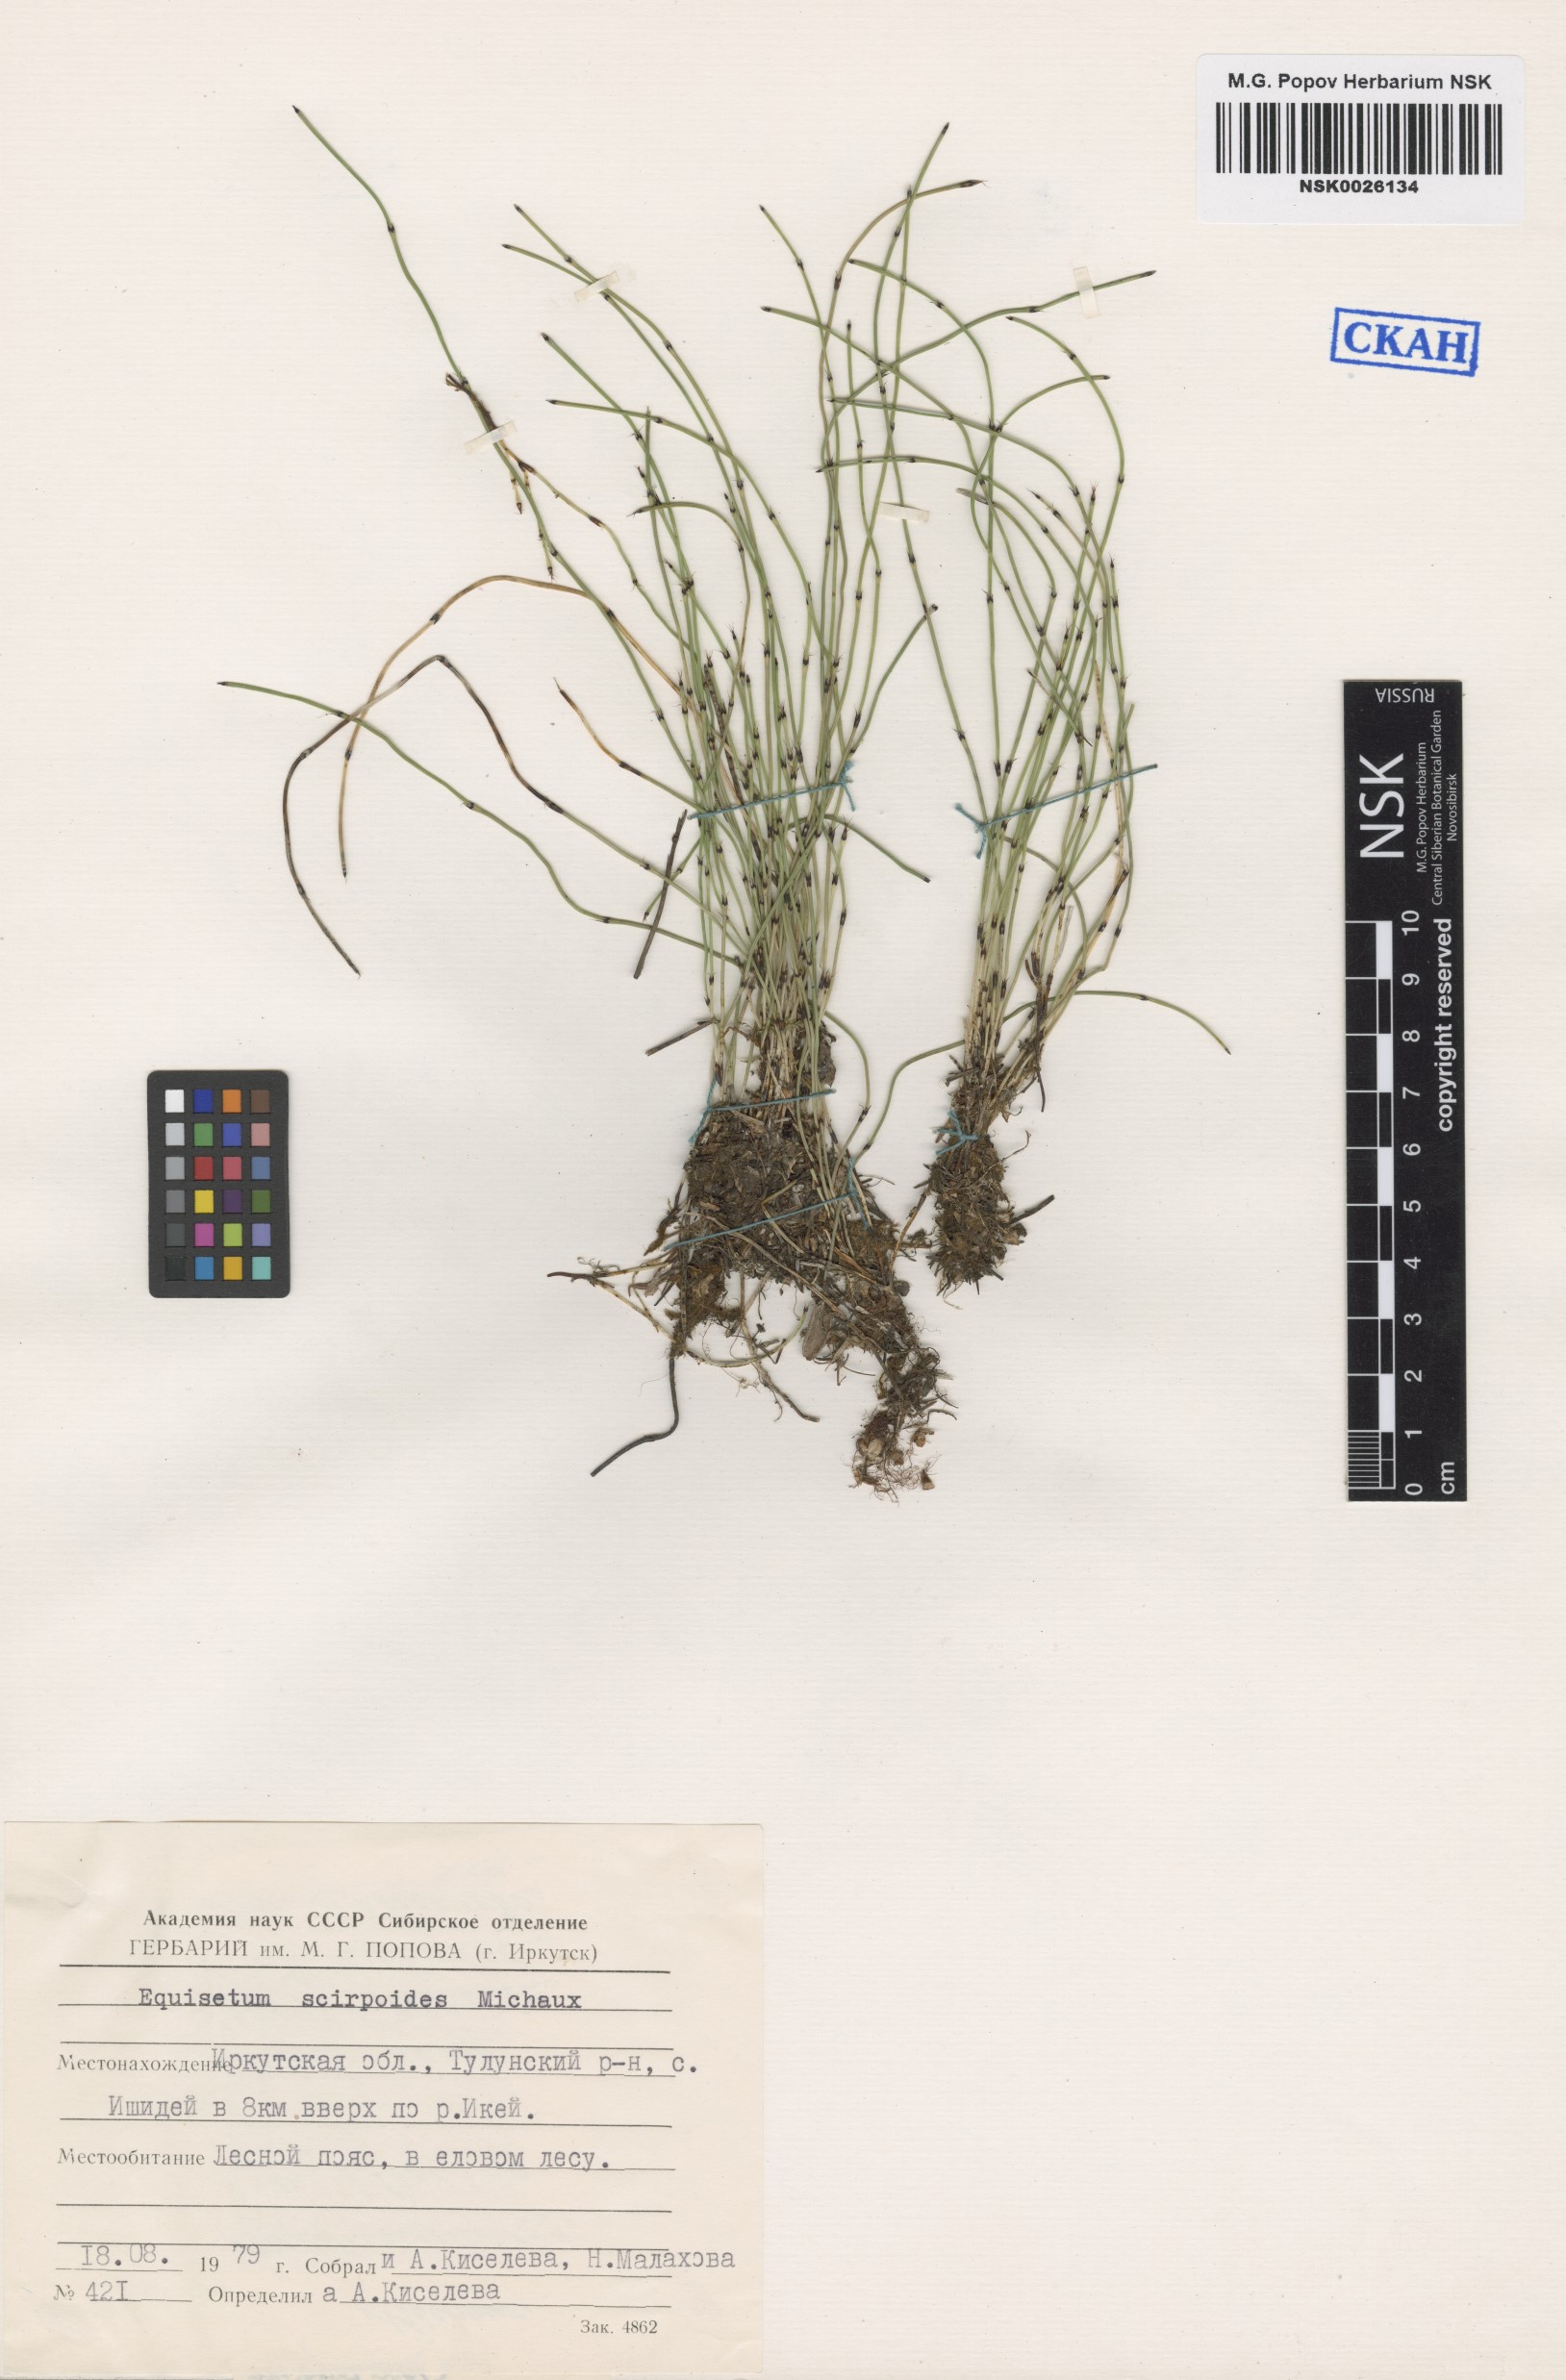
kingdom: Plantae
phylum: Tracheophyta
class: Polypodiopsida
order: Equisetales
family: Equisetaceae
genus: Equisetum
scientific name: Equisetum scirpoides
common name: Delicate horsetail
